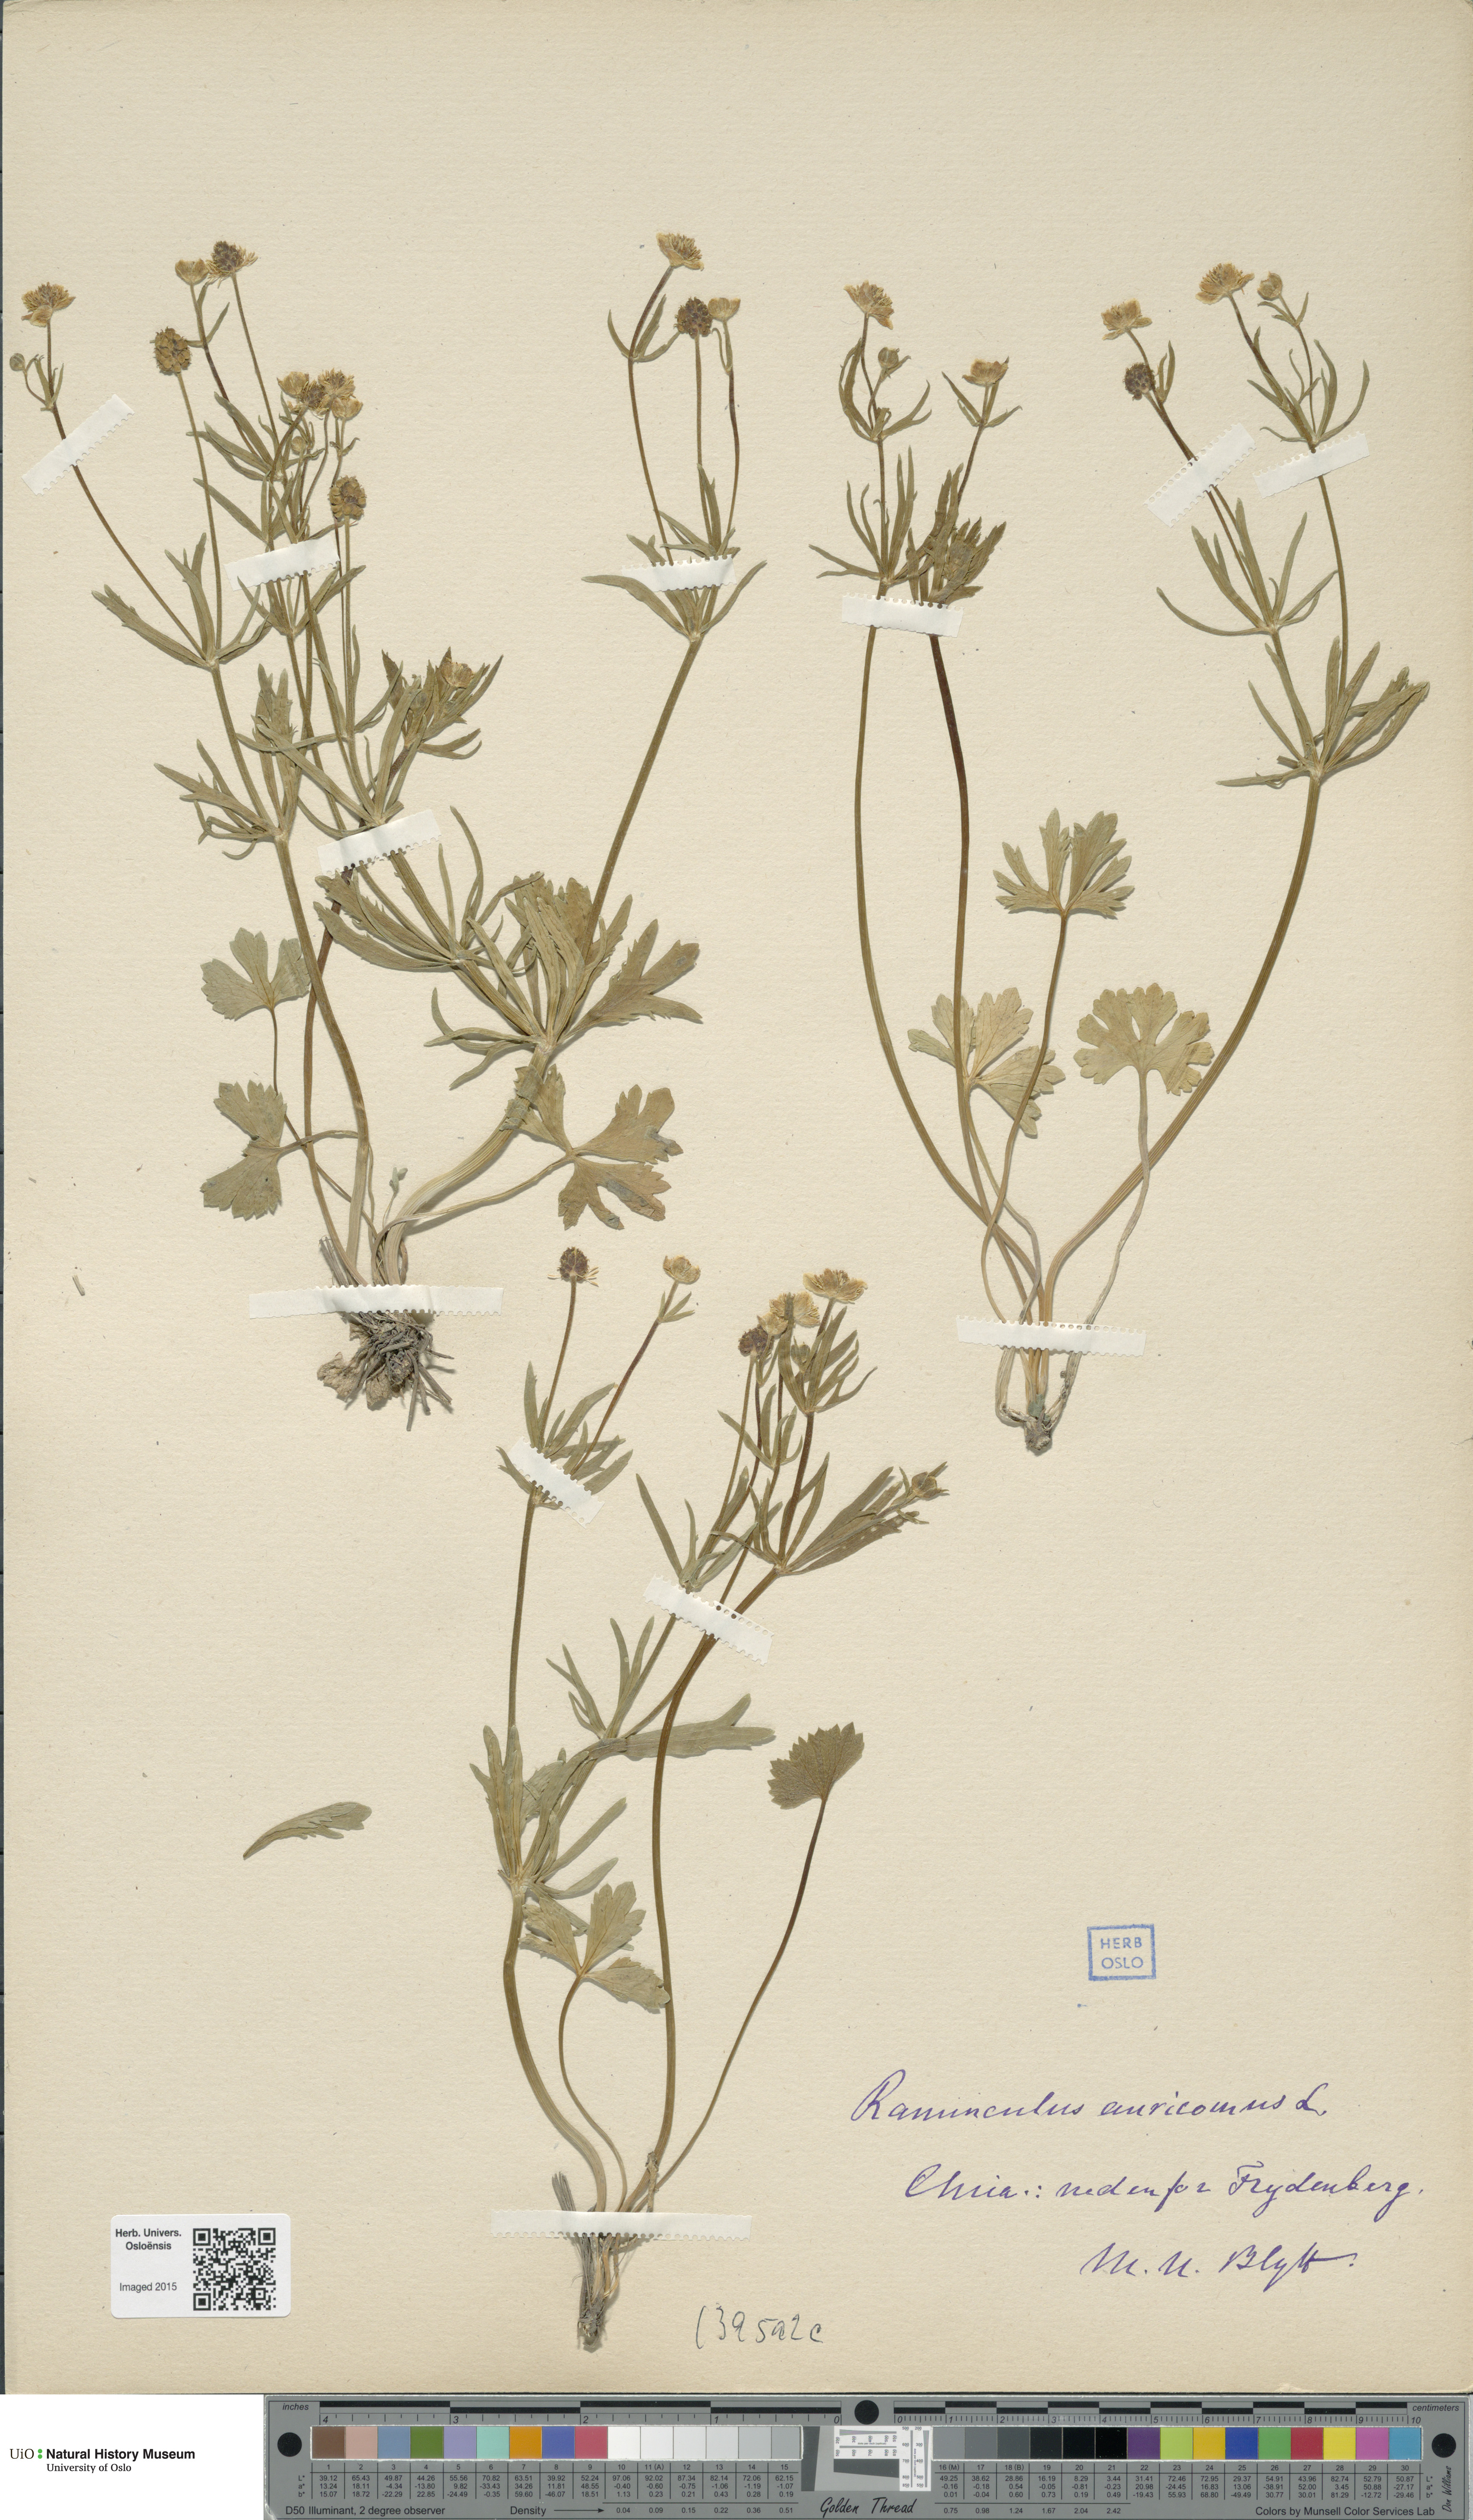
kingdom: Plantae
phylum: Tracheophyta
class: Magnoliopsida
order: Ranunculales
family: Ranunculaceae
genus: Ranunculus
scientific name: Ranunculus auricomus
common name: Goldilocks buttercup
